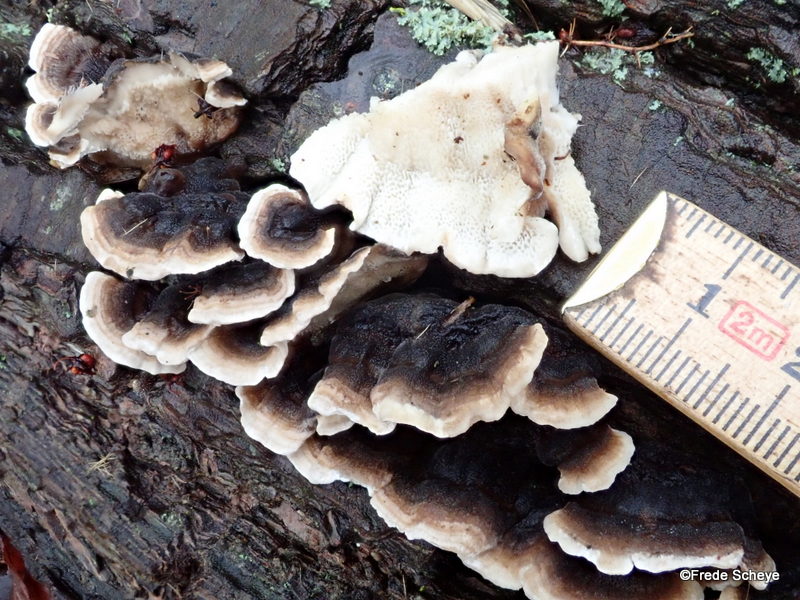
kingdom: Fungi
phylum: Basidiomycota
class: Agaricomycetes
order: Polyporales
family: Polyporaceae
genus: Trametes
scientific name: Trametes versicolor
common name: broget læderporesvamp
